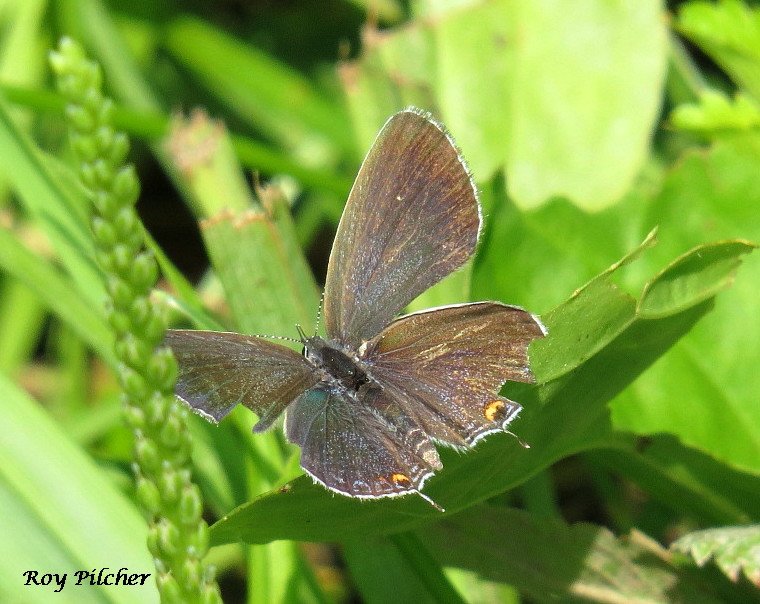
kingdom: Animalia
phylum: Arthropoda
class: Insecta
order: Lepidoptera
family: Lycaenidae
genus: Elkalyce
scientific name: Elkalyce comyntas
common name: Eastern Tailed-Blue
